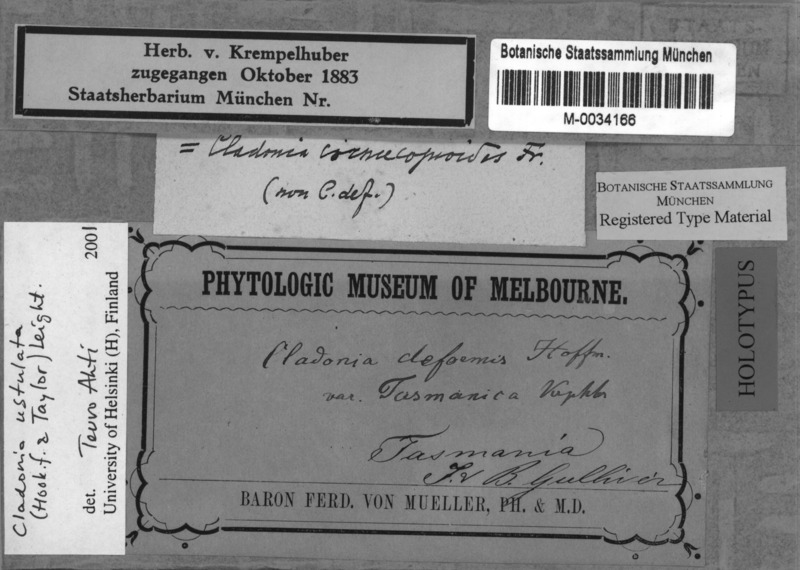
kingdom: Fungi
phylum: Ascomycota
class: Lecanoromycetes
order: Lecanorales
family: Cladoniaceae
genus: Cladonia
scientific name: Cladonia ustulata
